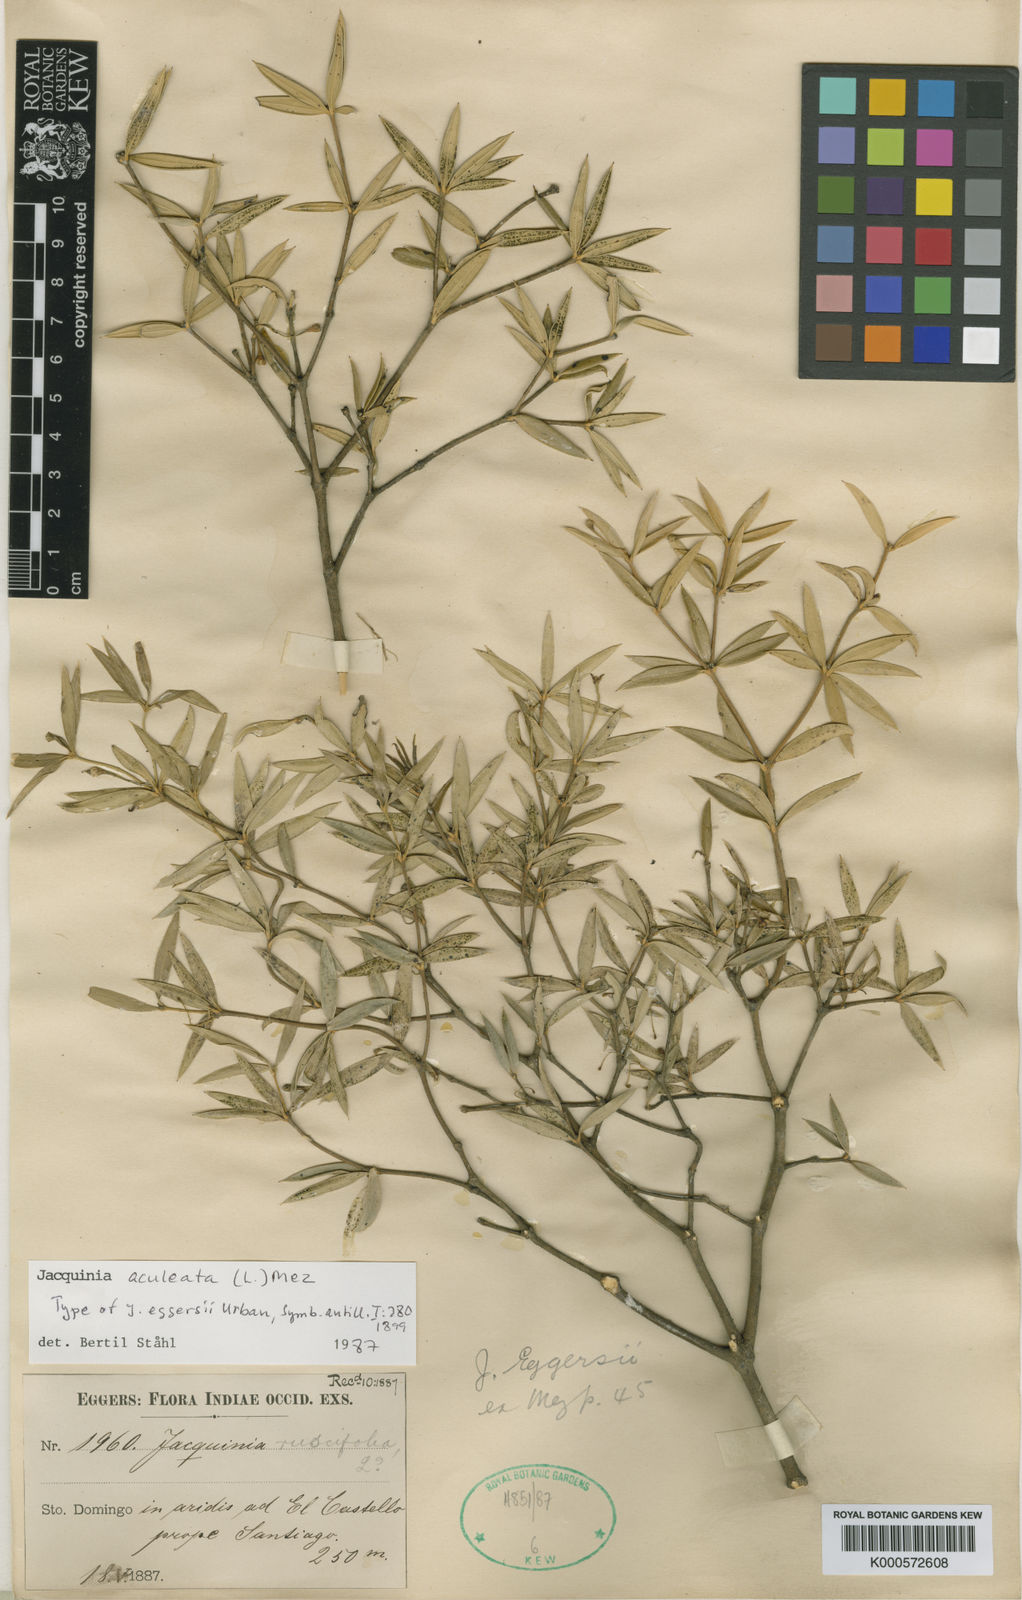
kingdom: Plantae
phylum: Tracheophyta
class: Magnoliopsida
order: Ericales
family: Primulaceae
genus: Jacquinia
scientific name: Jacquinia aculeata
